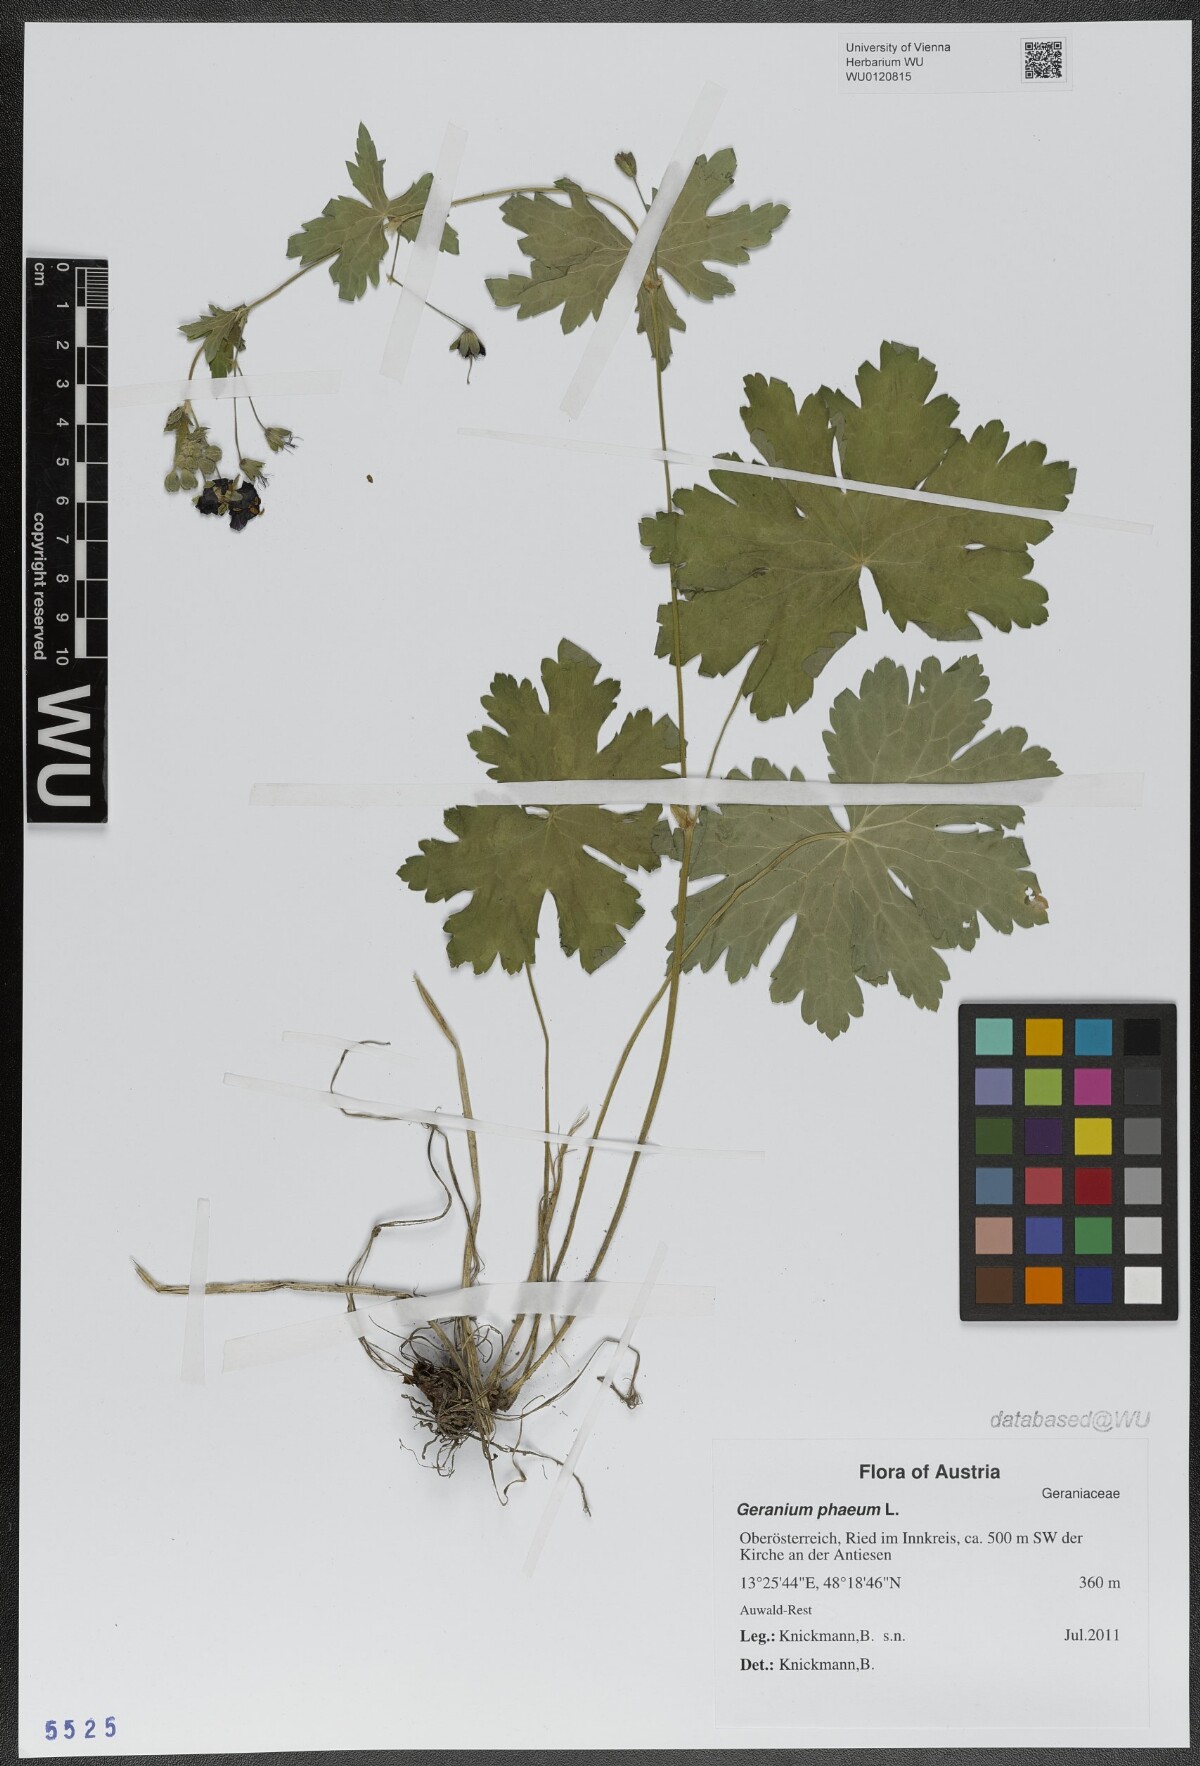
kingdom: Plantae
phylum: Tracheophyta
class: Magnoliopsida
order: Geraniales
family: Geraniaceae
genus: Geranium
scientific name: Geranium phaeum
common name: Dusky crane's-bill
